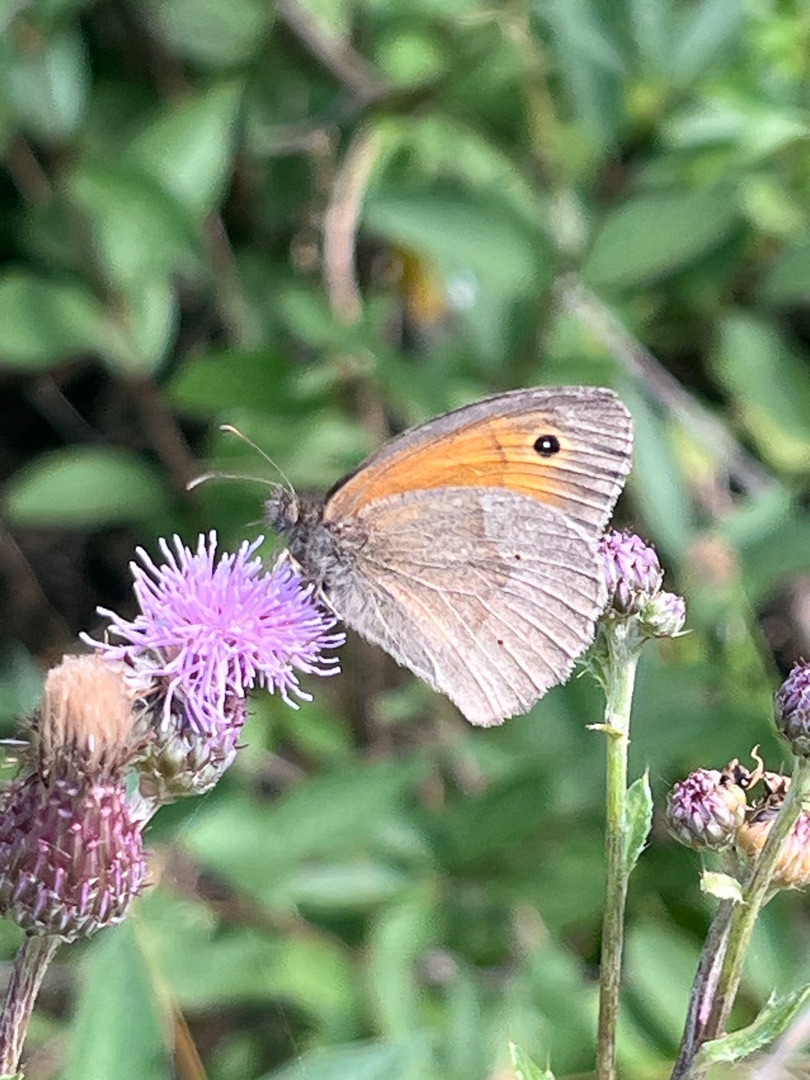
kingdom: Animalia
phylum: Arthropoda
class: Insecta
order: Lepidoptera
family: Nymphalidae
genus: Maniola
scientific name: Maniola jurtina
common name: Græsrandøje
